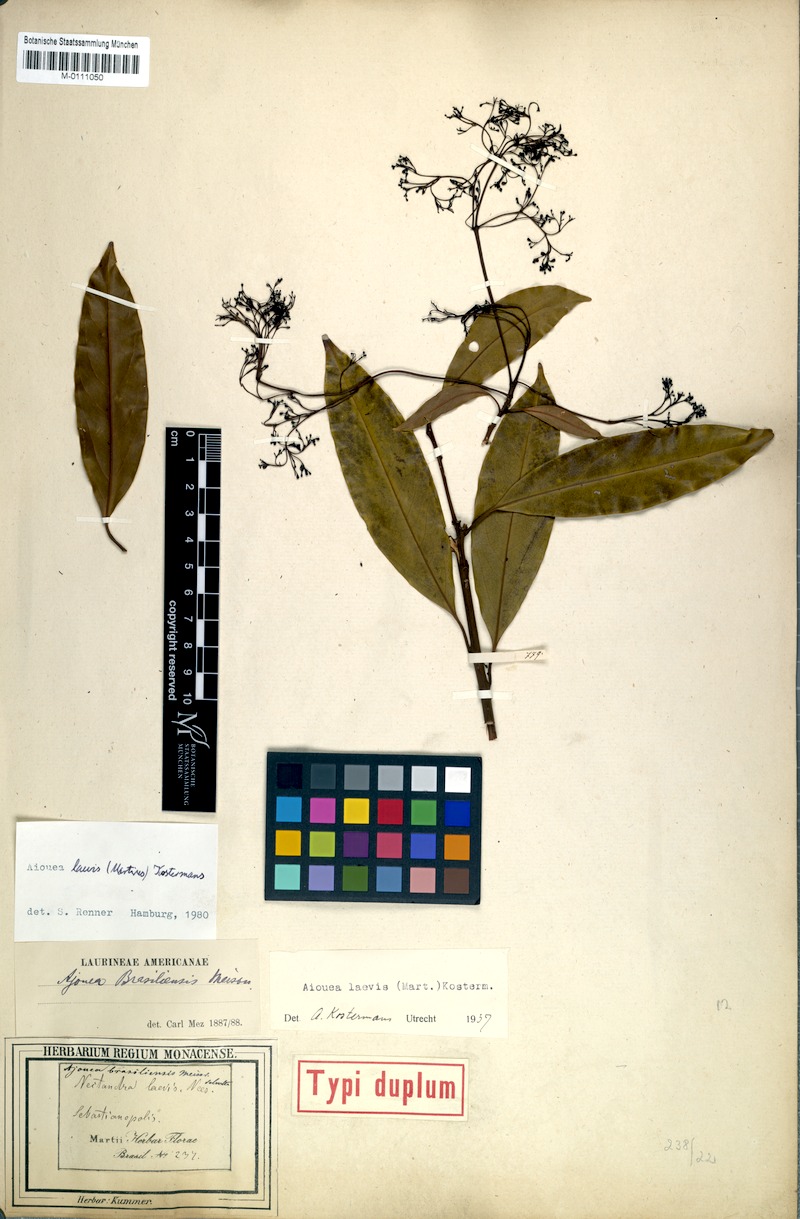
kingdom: Plantae
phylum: Tracheophyta
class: Magnoliopsida
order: Laurales
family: Lauraceae
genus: Aiouea
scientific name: Aiouea laevis
